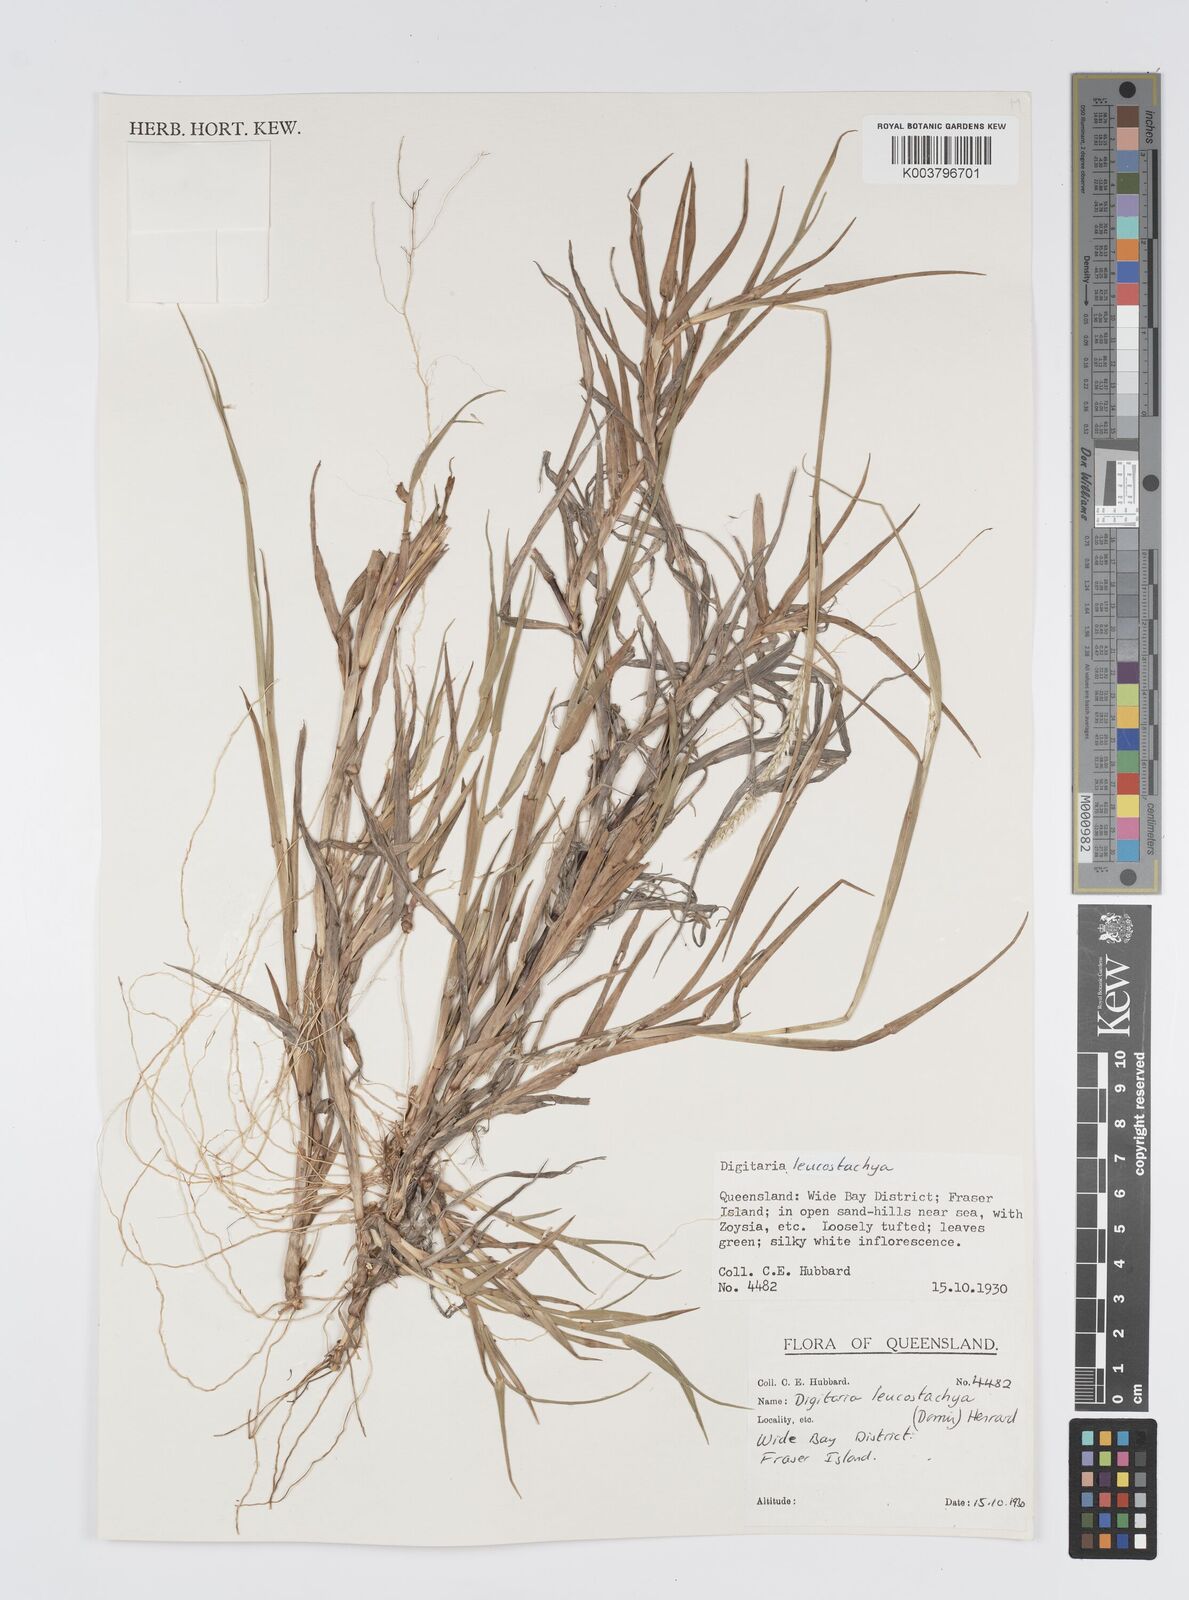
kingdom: Plantae
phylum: Tracheophyta
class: Liliopsida
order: Poales
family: Poaceae
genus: Digitaria
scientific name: Digitaria leucostachya
